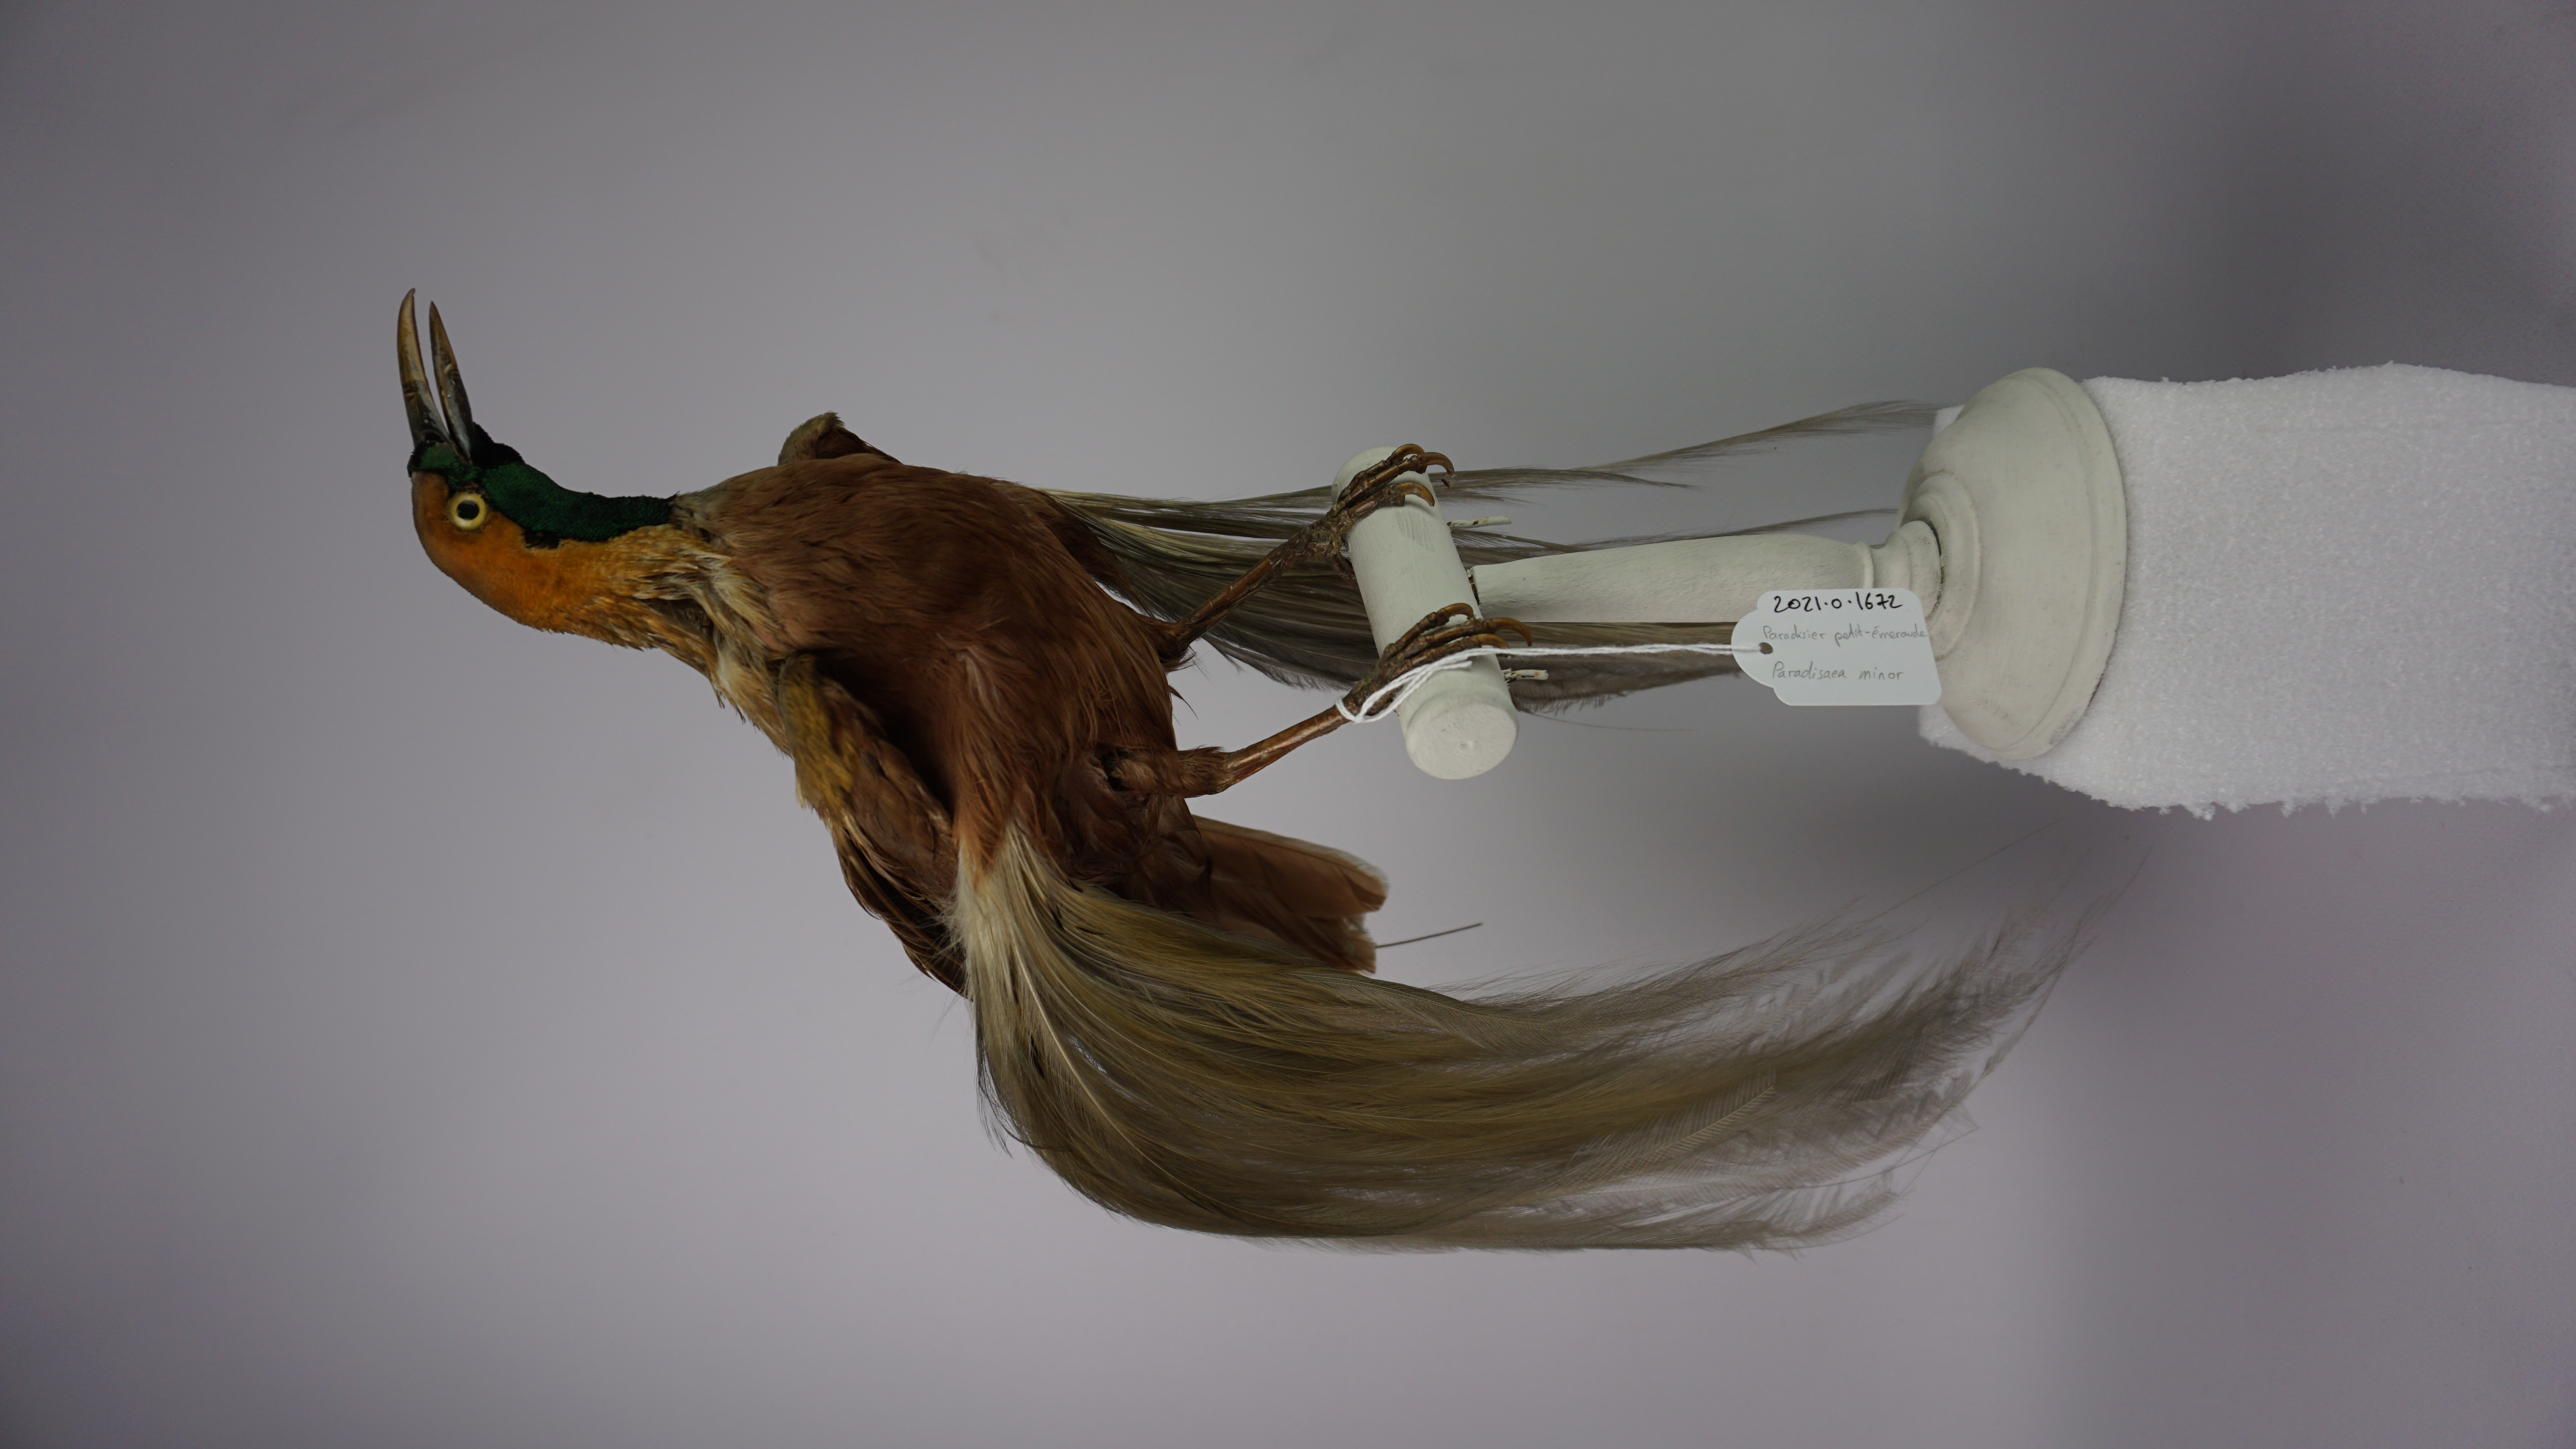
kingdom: Animalia
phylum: Chordata
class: Aves
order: Passeriformes
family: Paradisaeidae
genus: Paradisaea
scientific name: Paradisaea minor
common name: Lesser bird-of-paradise
